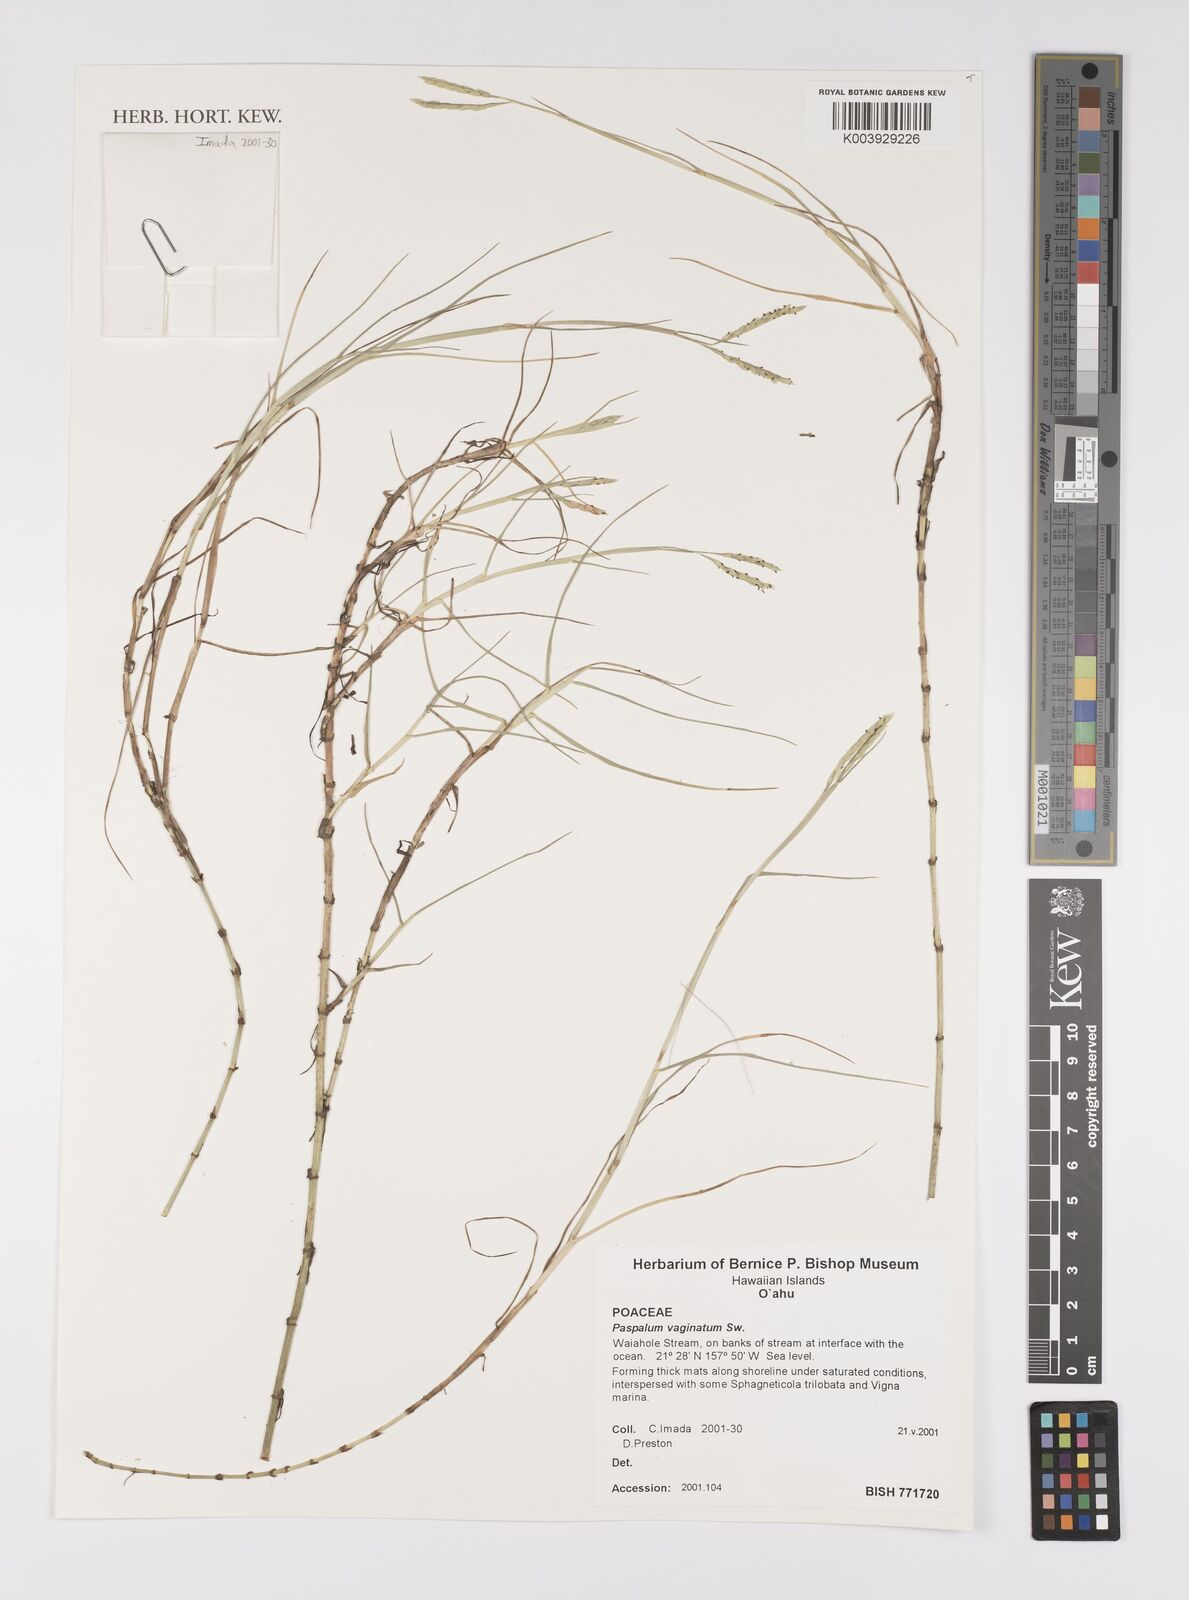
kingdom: Plantae
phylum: Tracheophyta
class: Liliopsida
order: Poales
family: Poaceae
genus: Paspalum
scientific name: Paspalum vaginatum
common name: Seashore paspalum
